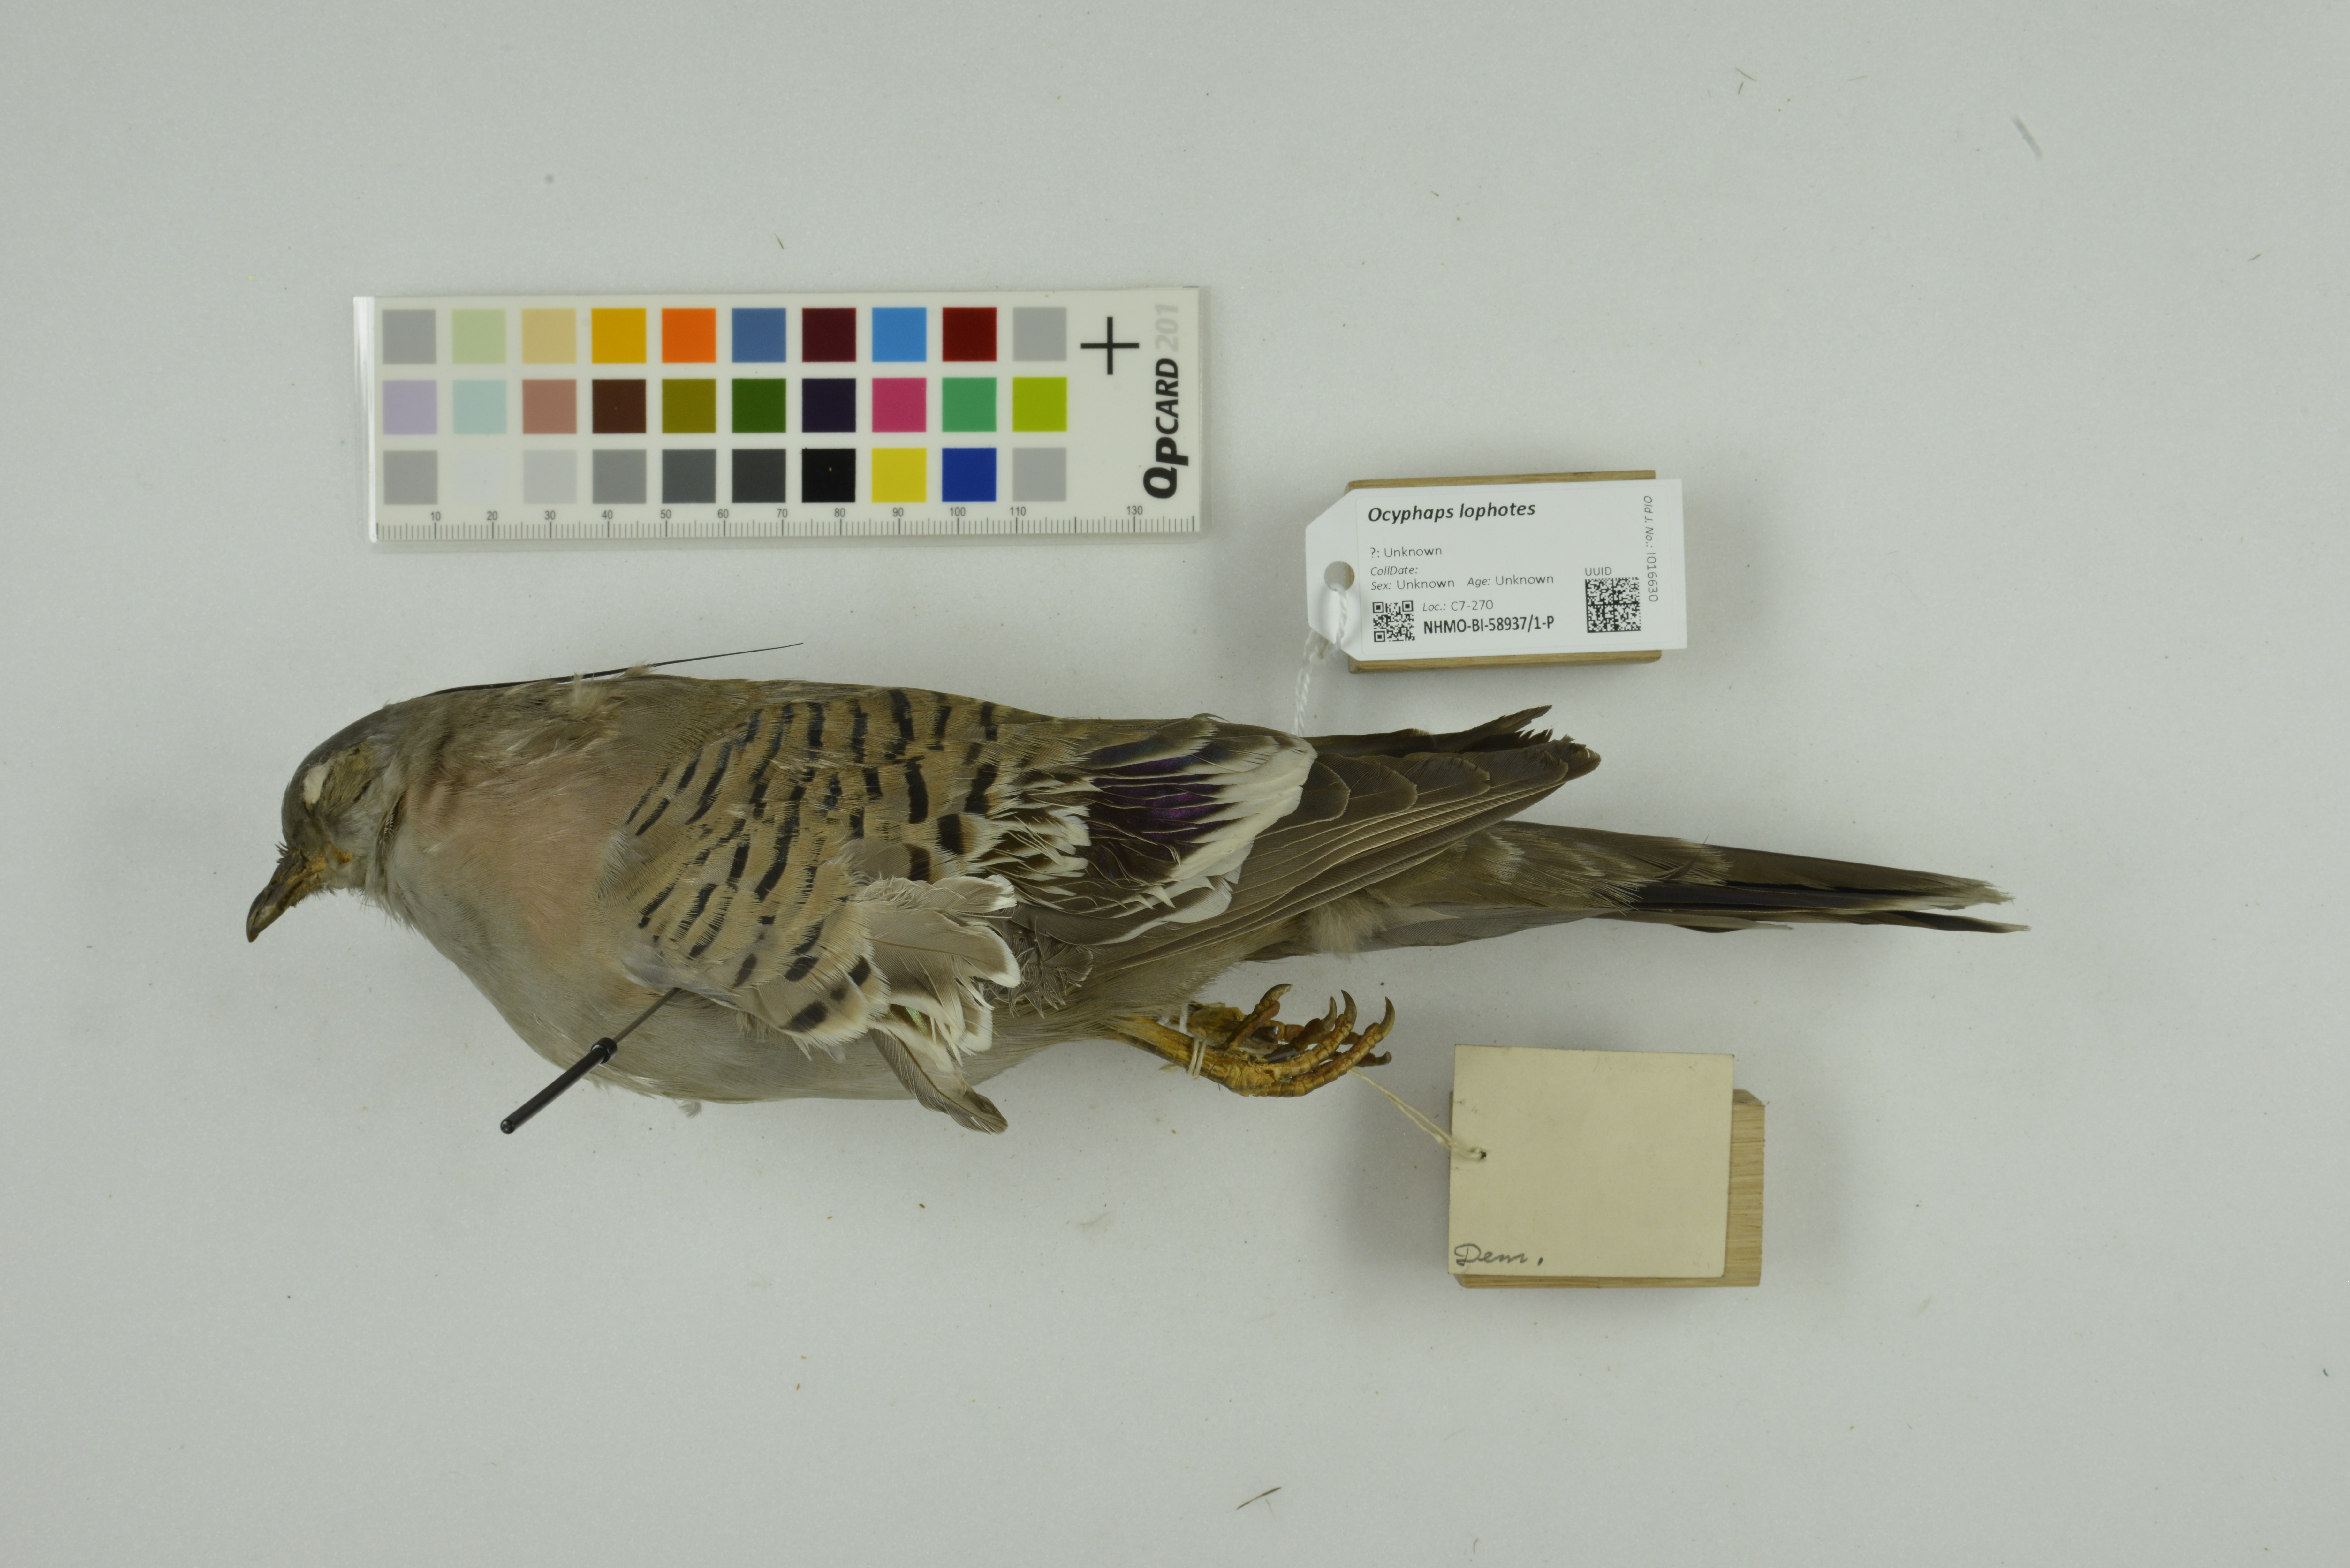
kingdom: Animalia
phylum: Chordata
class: Aves
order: Columbiformes
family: Columbidae
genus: Ocyphaps
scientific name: Ocyphaps lophotes
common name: Crested pigeon
